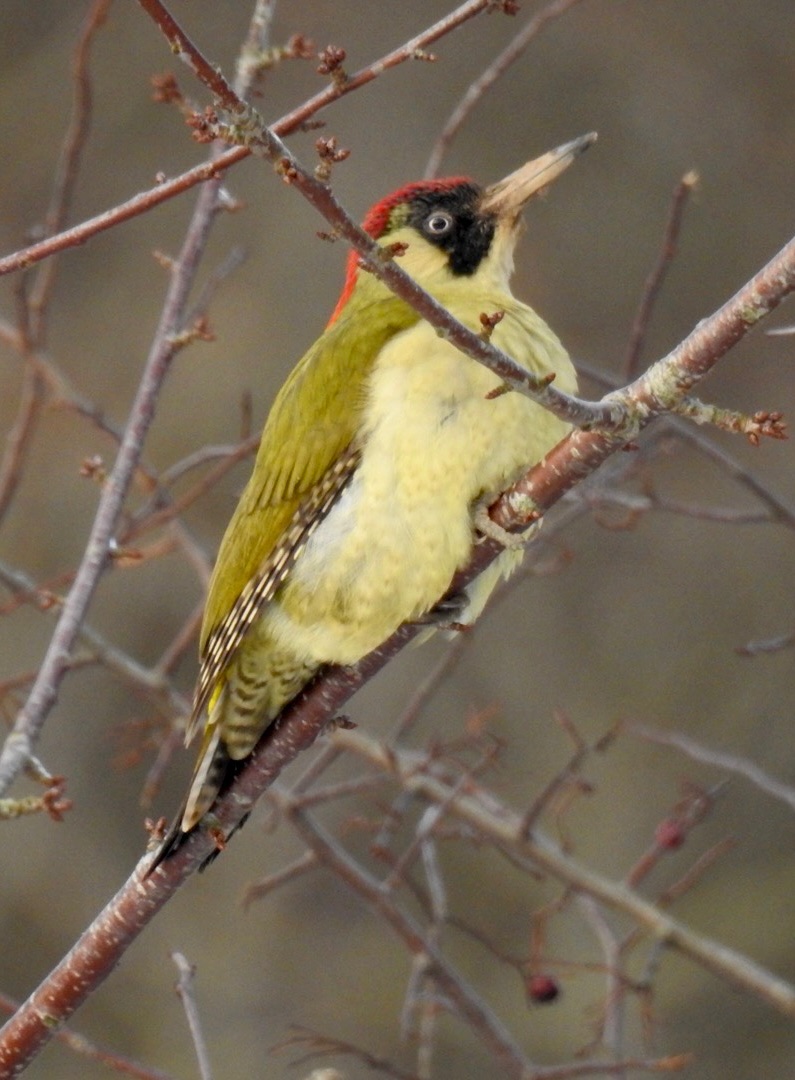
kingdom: Animalia
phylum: Chordata
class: Aves
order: Piciformes
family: Picidae
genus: Picus
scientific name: Picus viridis
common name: Grønspætte
